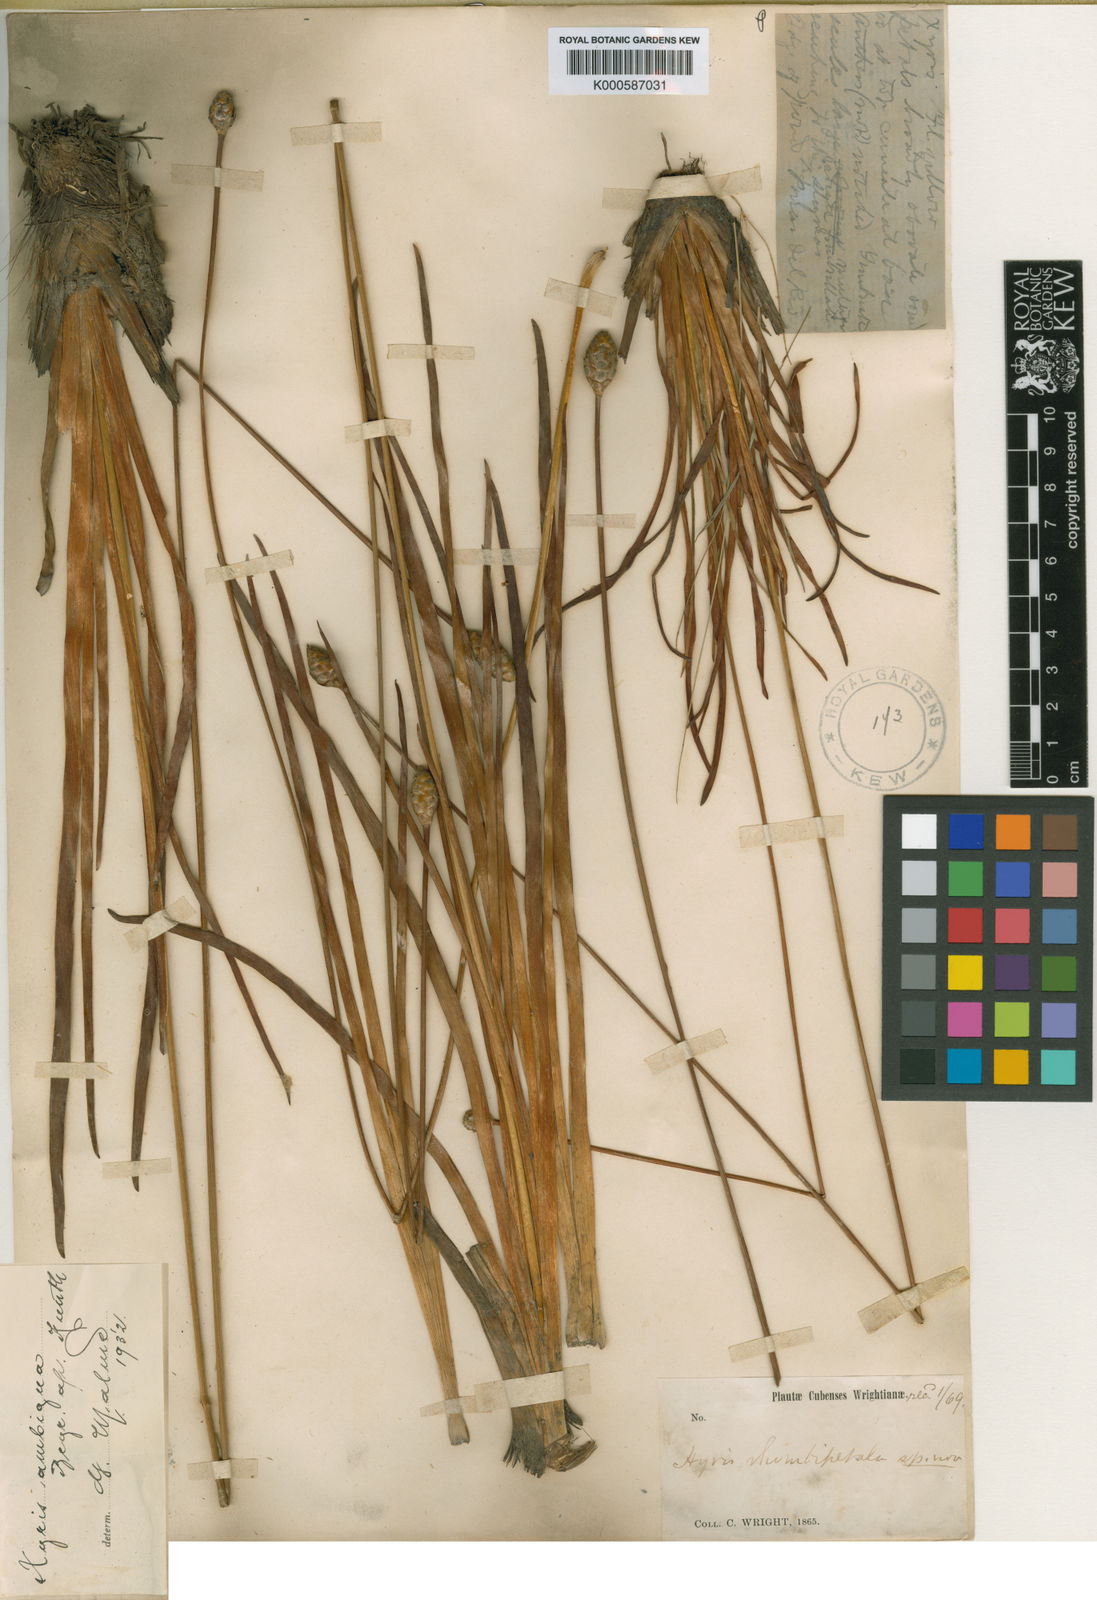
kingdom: Plantae
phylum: Tracheophyta
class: Liliopsida
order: Poales
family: Xyridaceae
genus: Xyris
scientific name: Xyris ambigua
